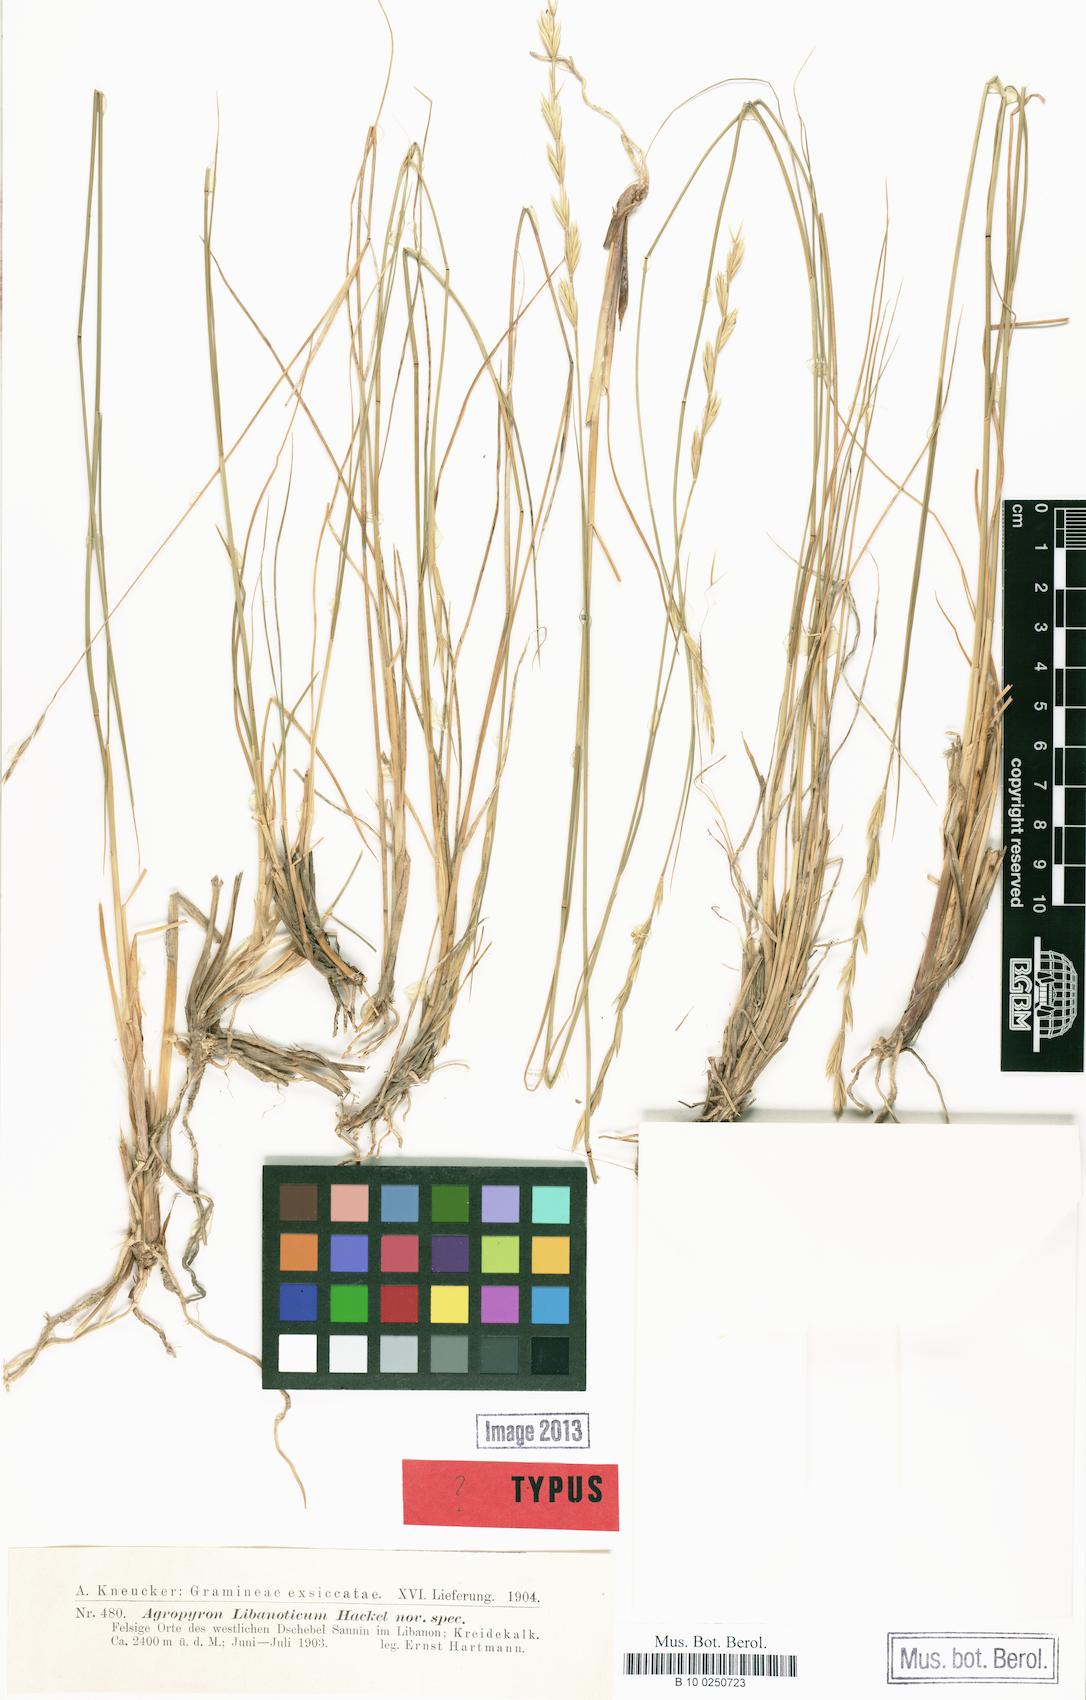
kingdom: Plantae
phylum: Tracheophyta
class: Liliopsida
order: Poales
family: Poaceae
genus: Pseudoroegneria
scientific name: Pseudoroegneria libanotica
